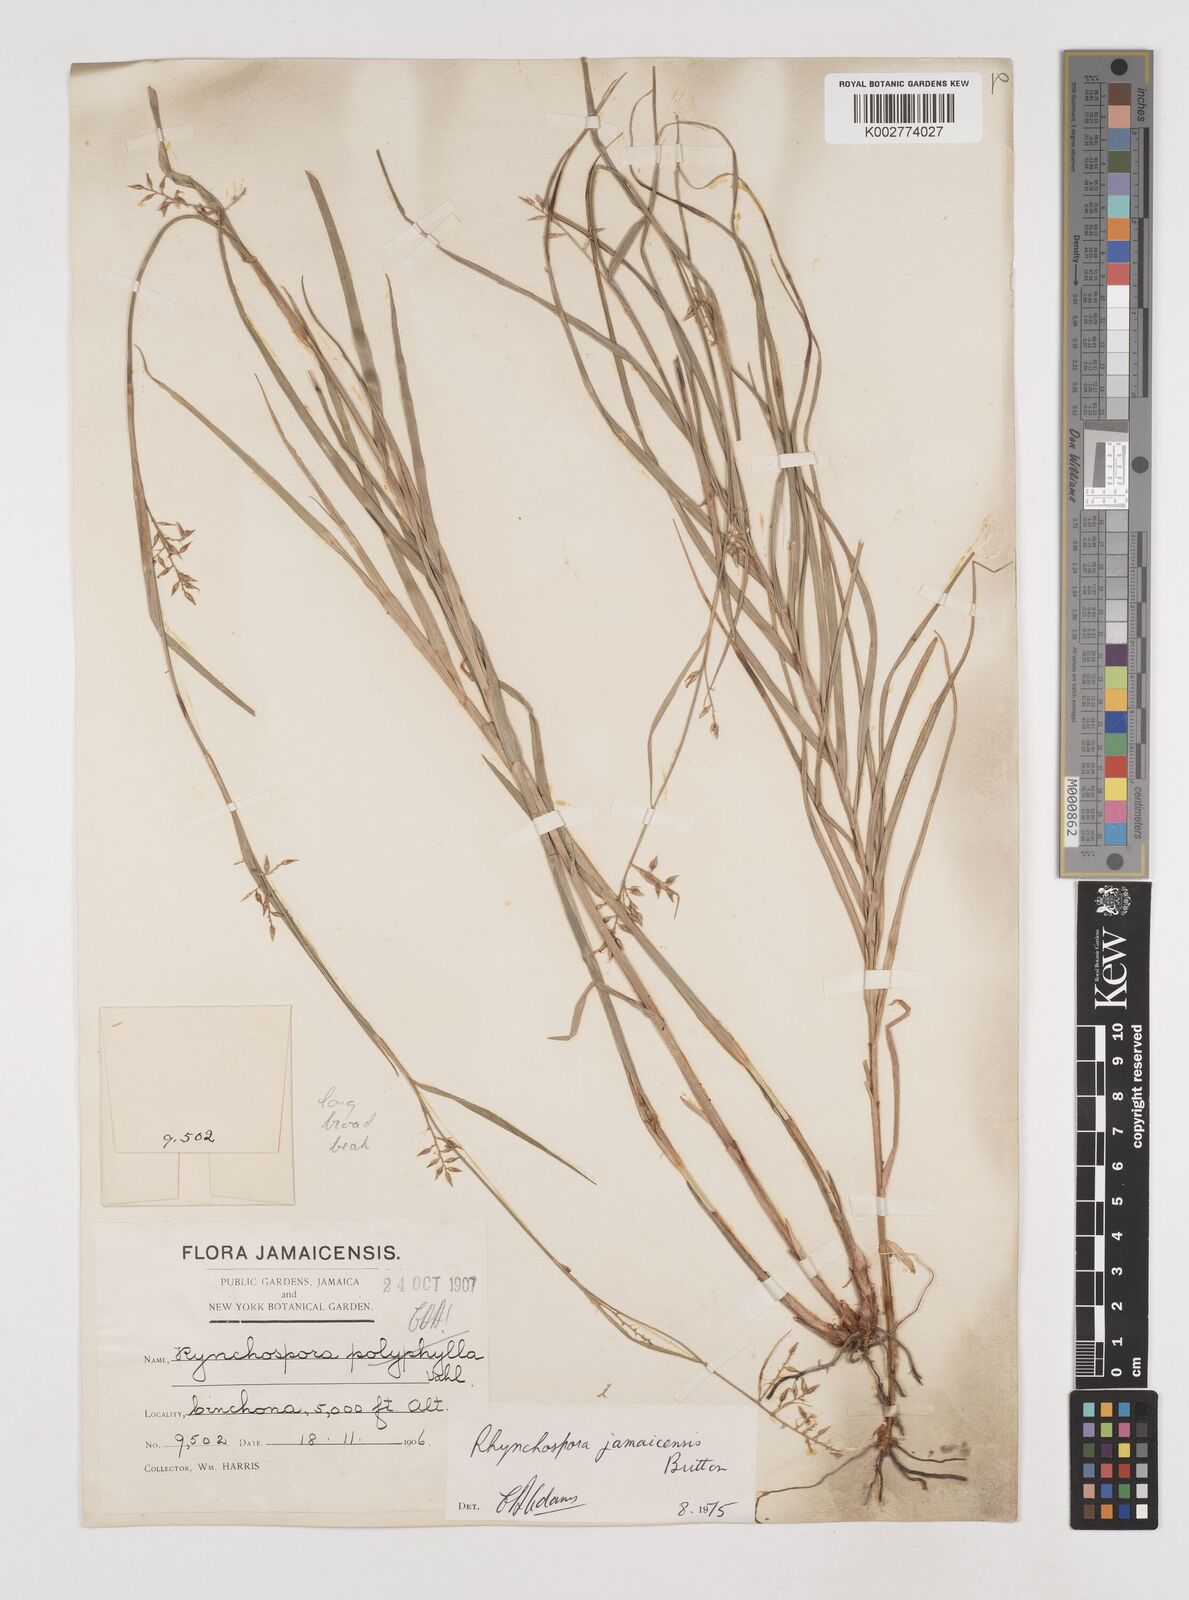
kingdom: Plantae
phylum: Tracheophyta
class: Liliopsida
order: Poales
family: Cyperaceae
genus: Rhynchospora
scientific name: Rhynchospora jamaicensis
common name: Jamaican beaksedge
